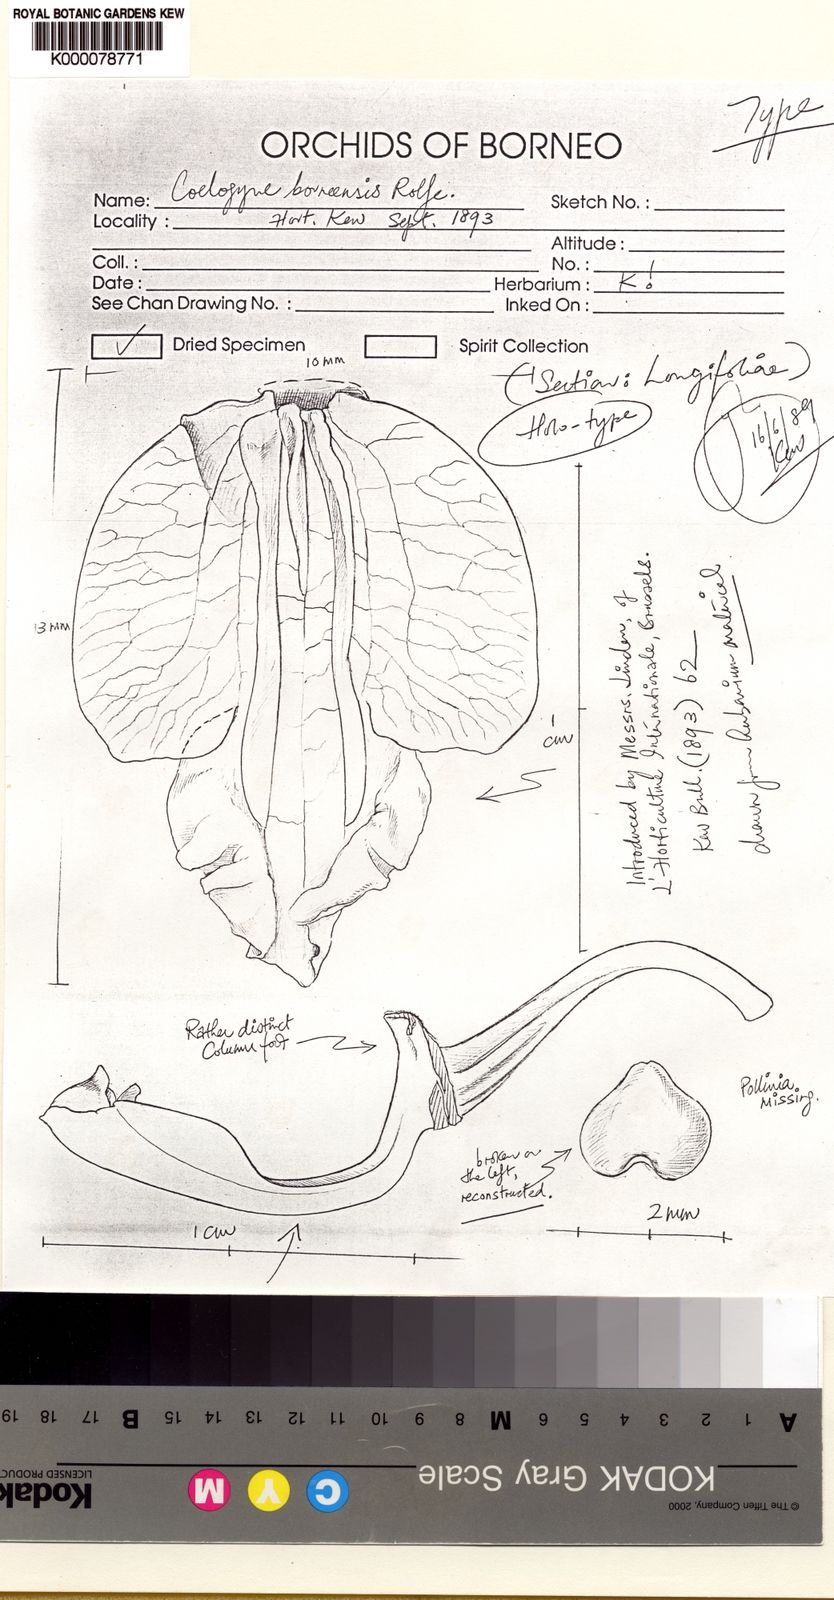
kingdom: Plantae
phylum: Tracheophyta
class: Liliopsida
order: Asparagales
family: Orchidaceae
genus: Coelogyne
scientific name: Coelogyne borneensis
